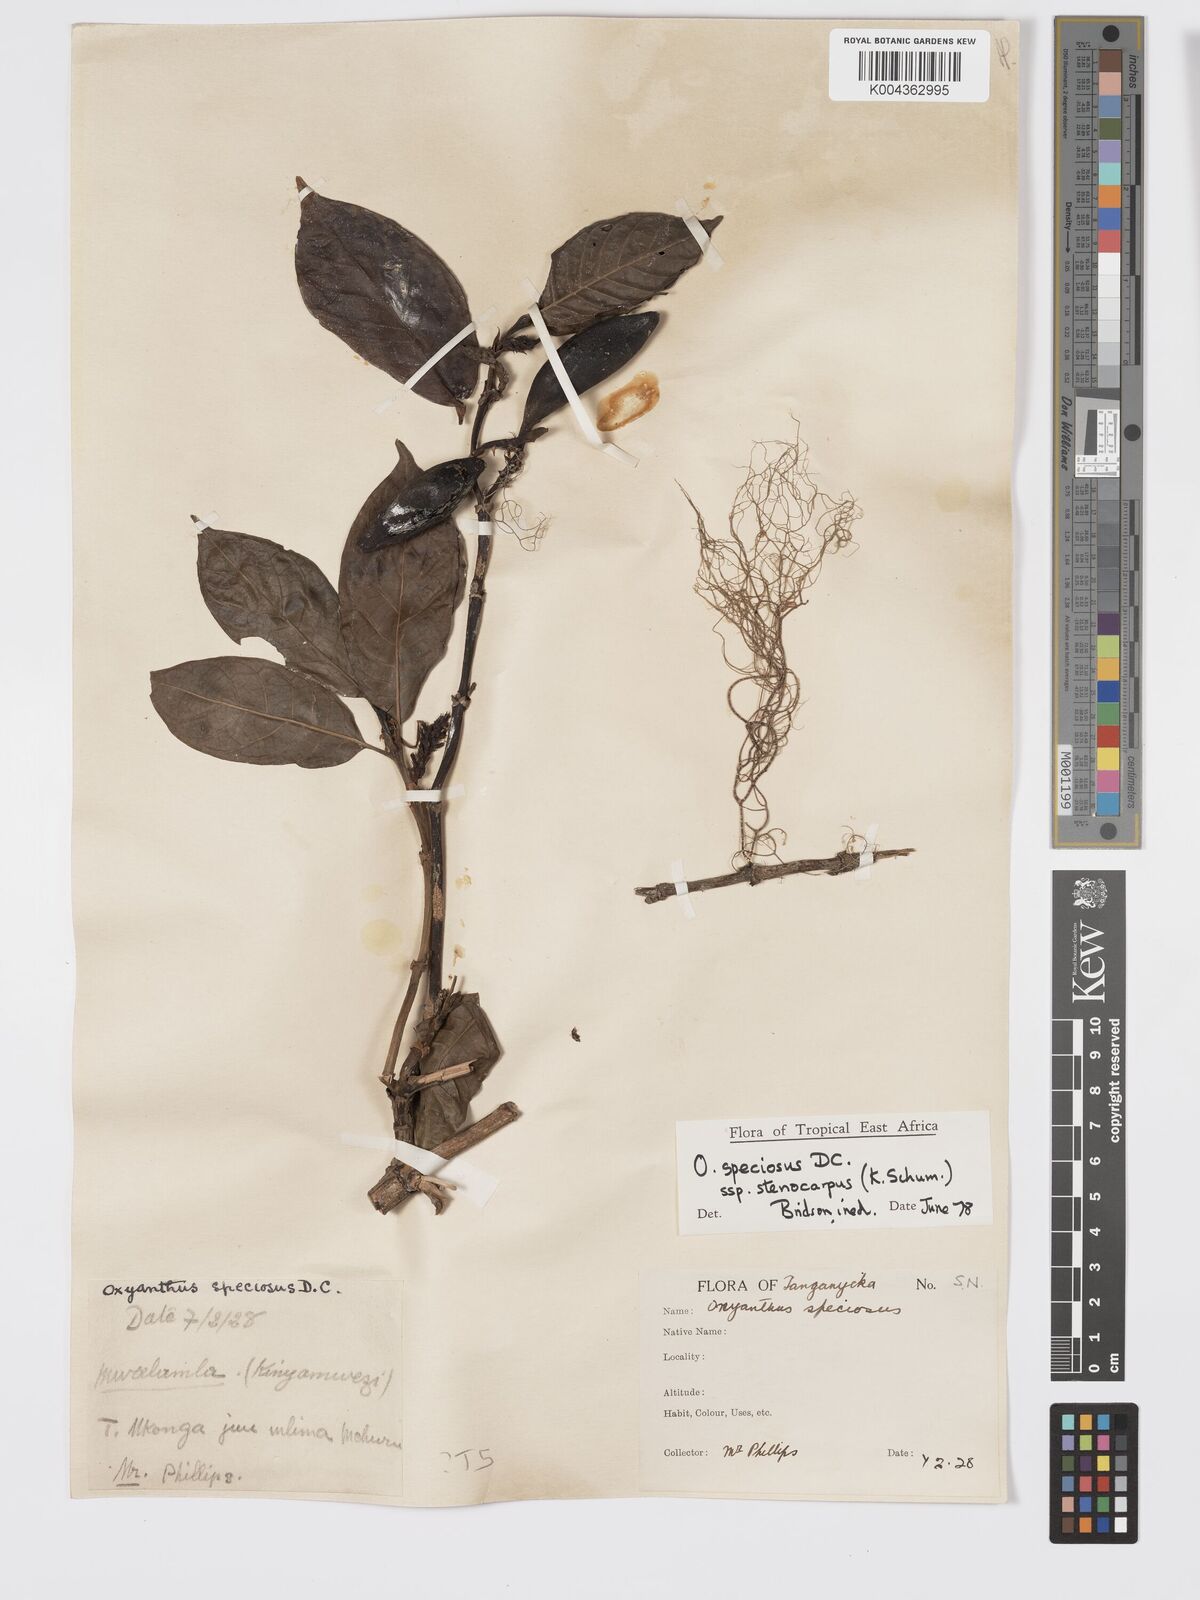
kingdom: Plantae
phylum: Tracheophyta
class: Magnoliopsida
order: Gentianales
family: Rubiaceae
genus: Oxyanthus
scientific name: Oxyanthus speciosus
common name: Whipstick loquat
